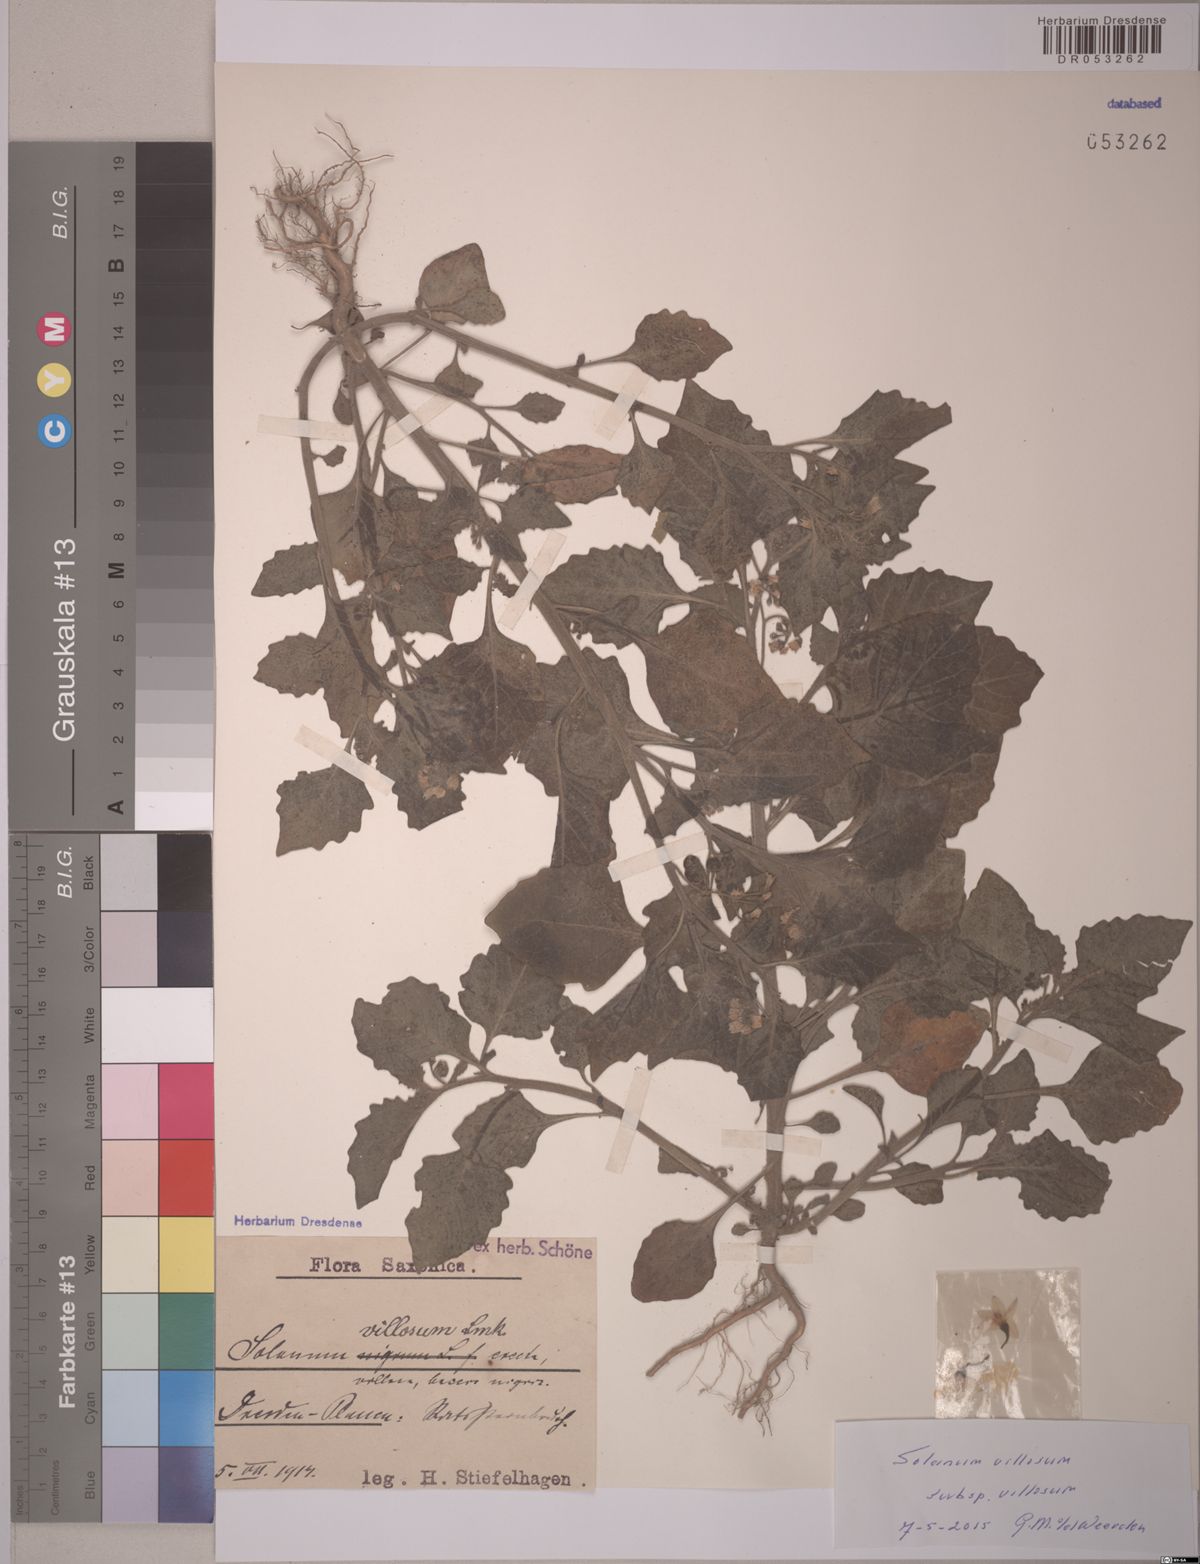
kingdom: Plantae
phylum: Tracheophyta
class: Magnoliopsida
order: Solanales
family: Solanaceae
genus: Solanum
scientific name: Solanum villosum
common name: Red nightshade
